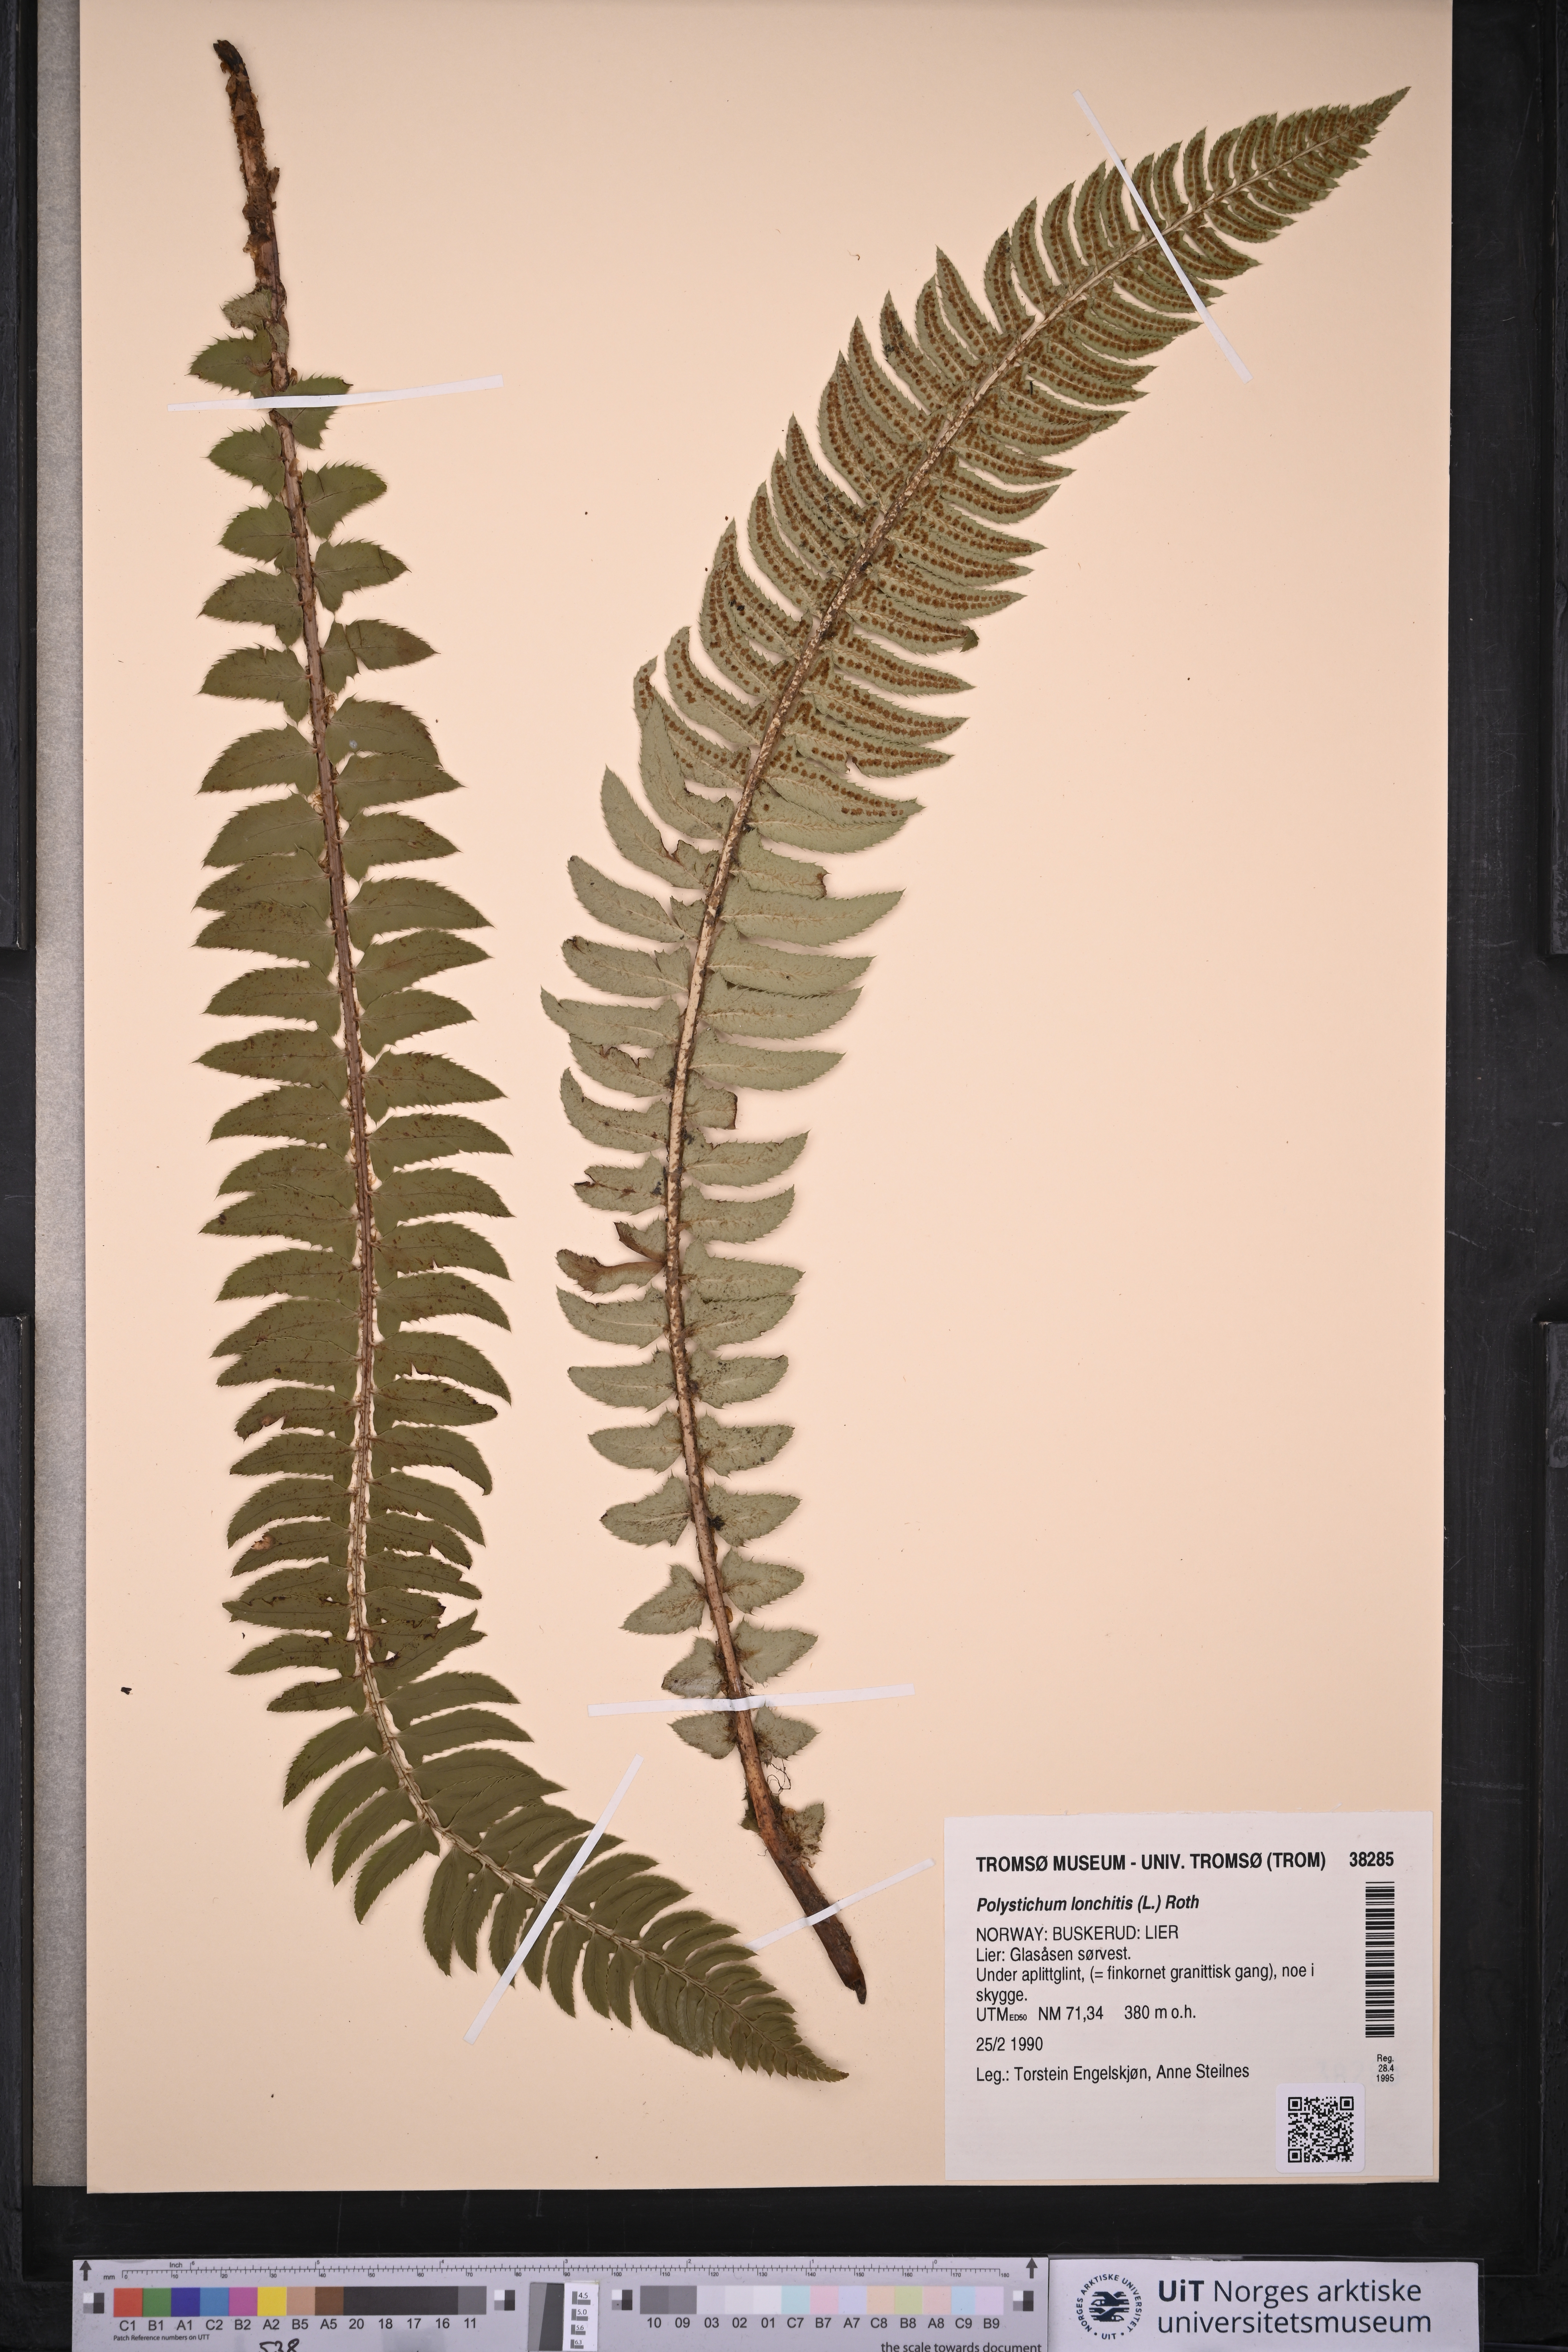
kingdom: Plantae
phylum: Tracheophyta
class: Polypodiopsida
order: Polypodiales
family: Dryopteridaceae
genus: Polystichum
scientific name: Polystichum lonchitis
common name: Holly fern
